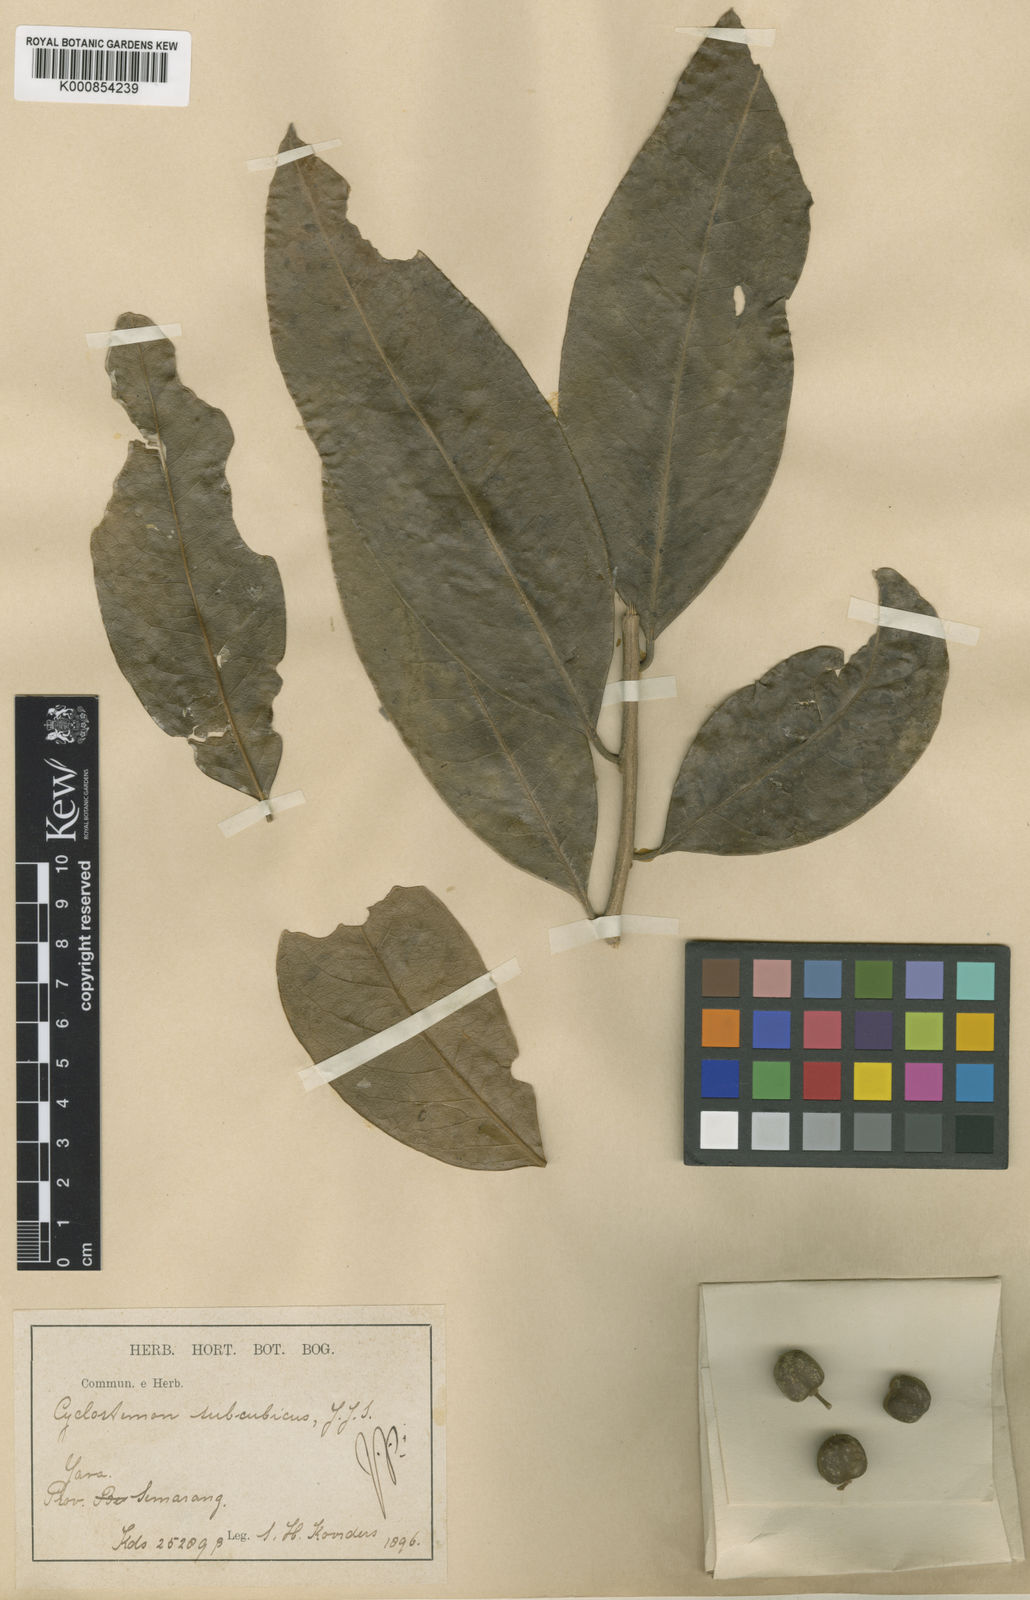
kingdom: Plantae
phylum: Tracheophyta
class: Magnoliopsida
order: Malpighiales
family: Putranjivaceae
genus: Drypetes
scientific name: Drypetes subcubica
